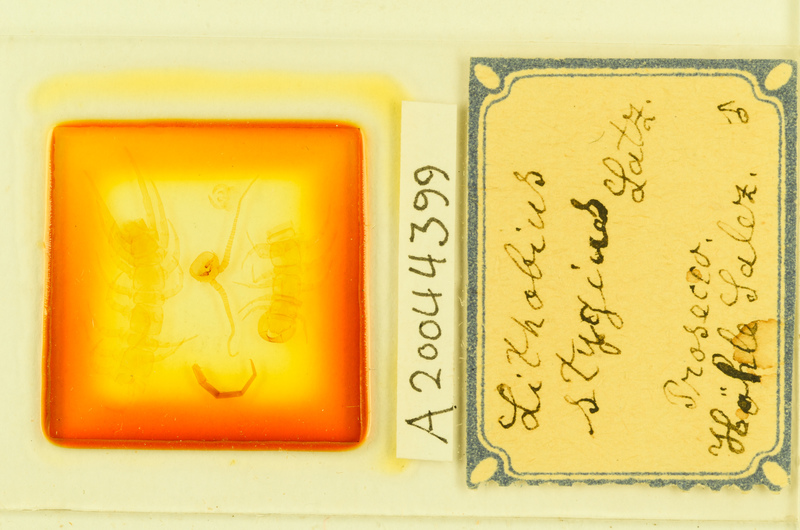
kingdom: Animalia
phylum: Arthropoda
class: Chilopoda
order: Lithobiomorpha
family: Lithobiidae
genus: Lithobius
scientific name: Lithobius stygius
